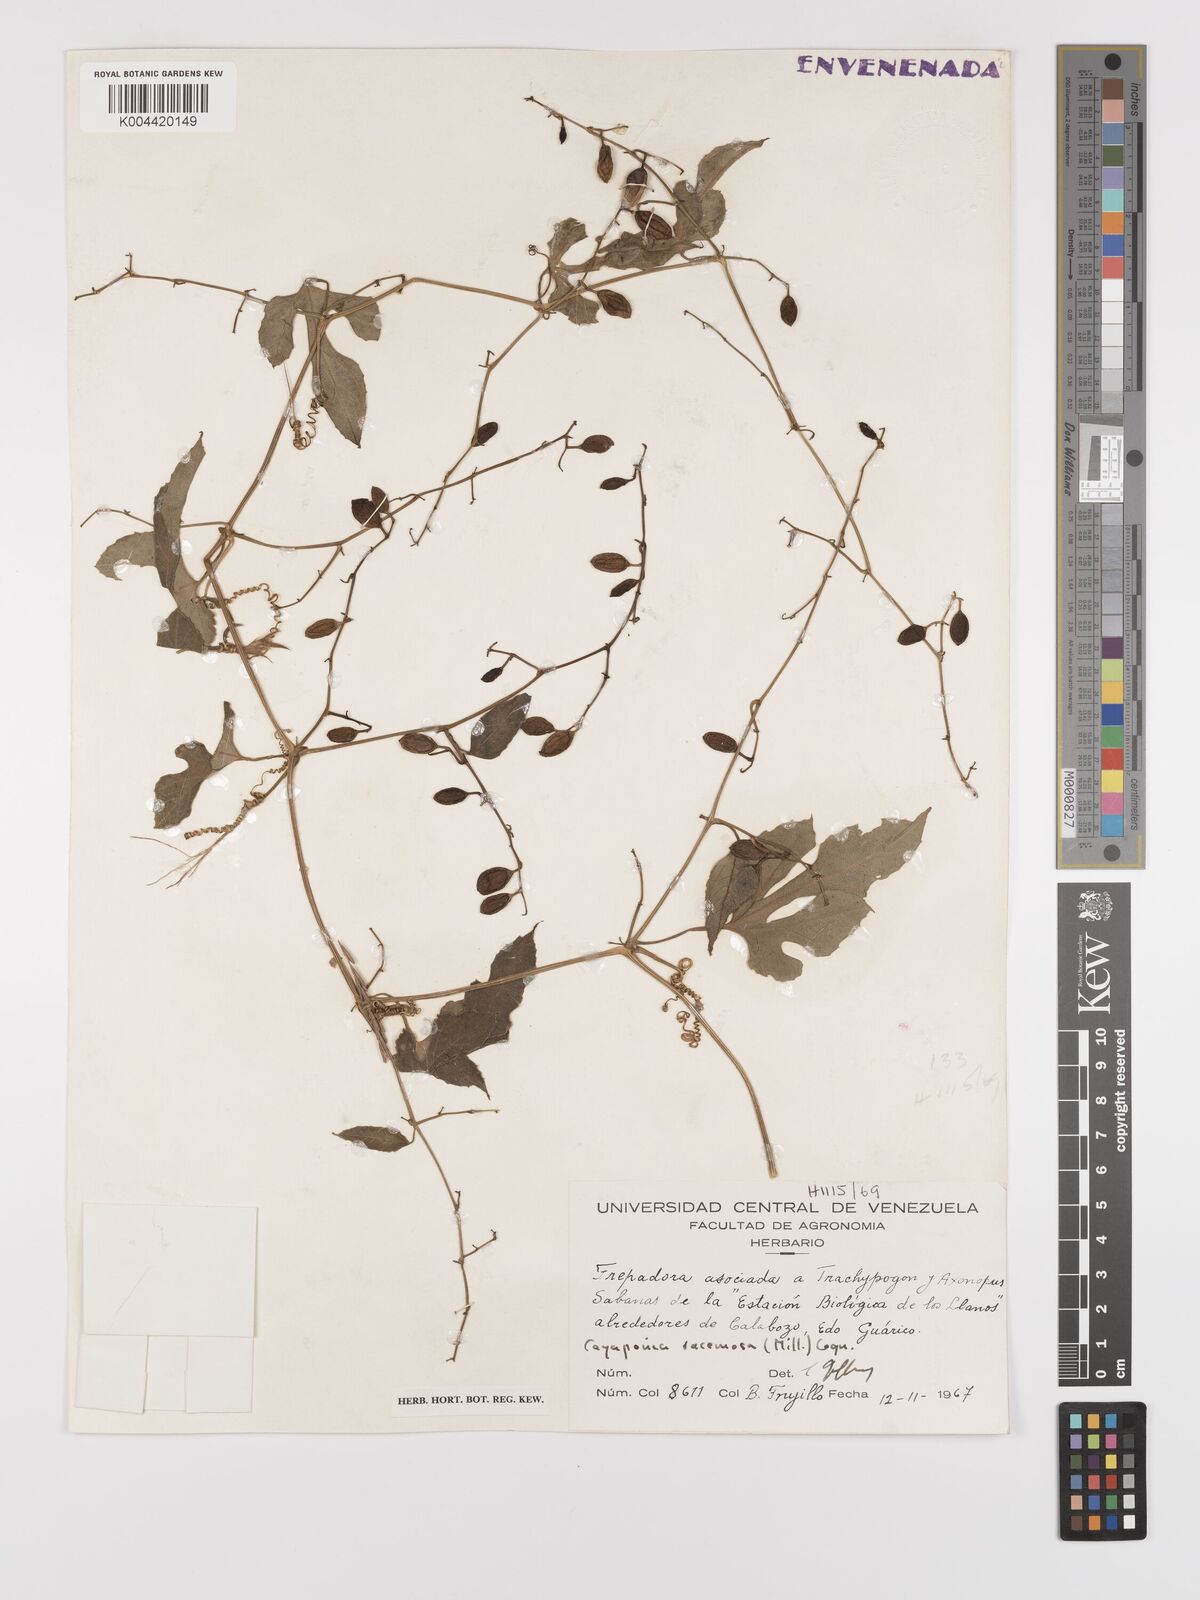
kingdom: Plantae
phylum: Tracheophyta
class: Magnoliopsida
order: Cucurbitales
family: Cucurbitaceae
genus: Cayaponia
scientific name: Cayaponia racemosa
